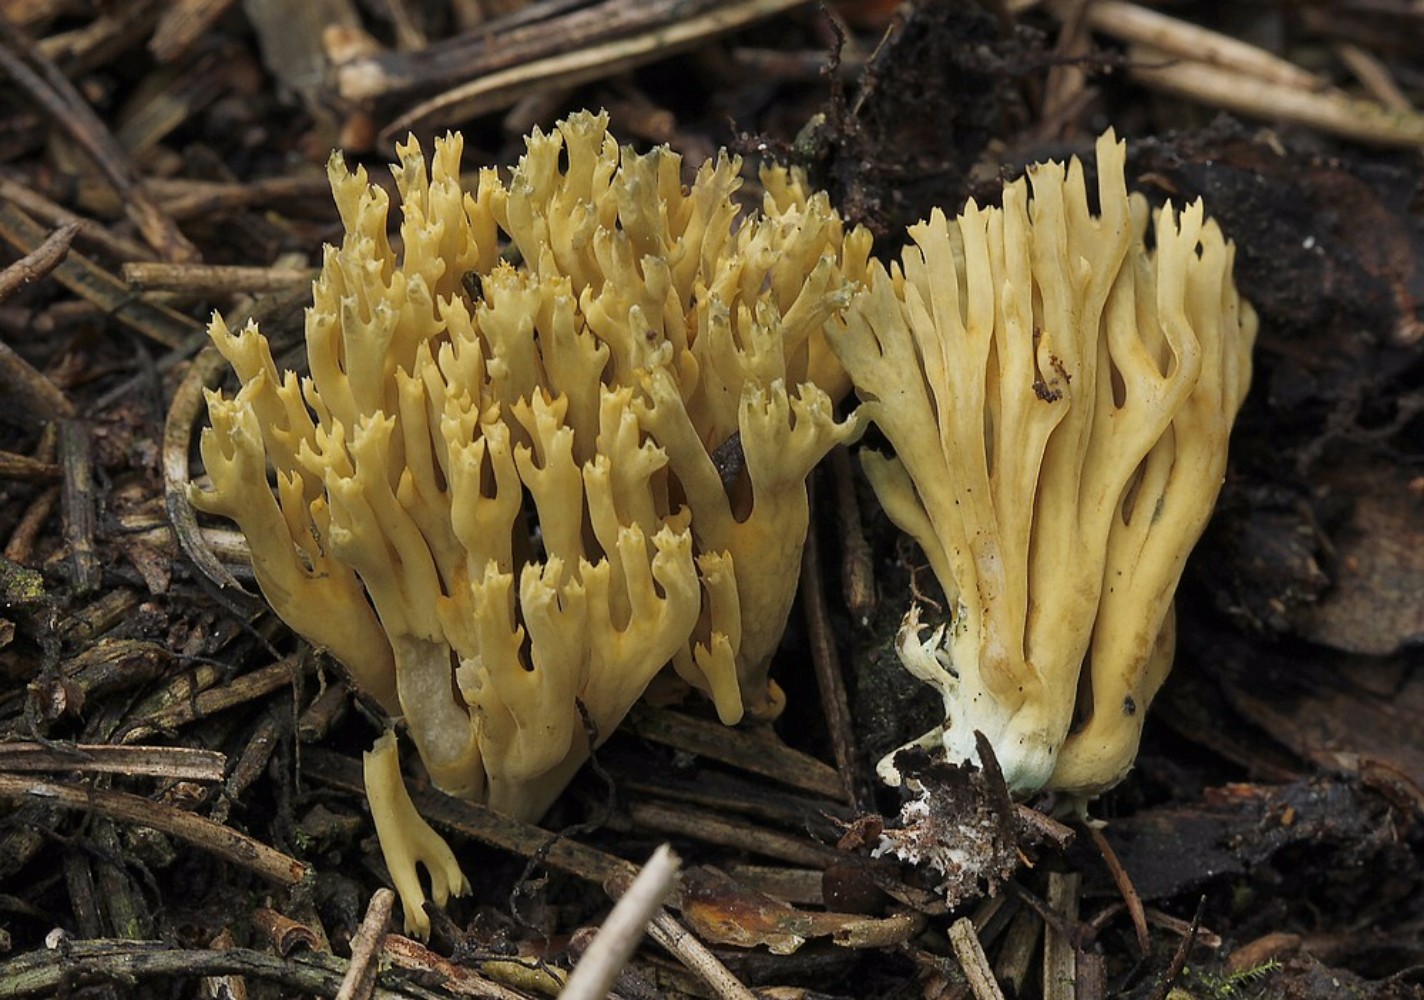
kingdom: Fungi
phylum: Basidiomycota
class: Agaricomycetes
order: Gomphales
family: Gomphaceae
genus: Phaeoclavulina
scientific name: Phaeoclavulina eumorpha
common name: gran-koralsvamp
